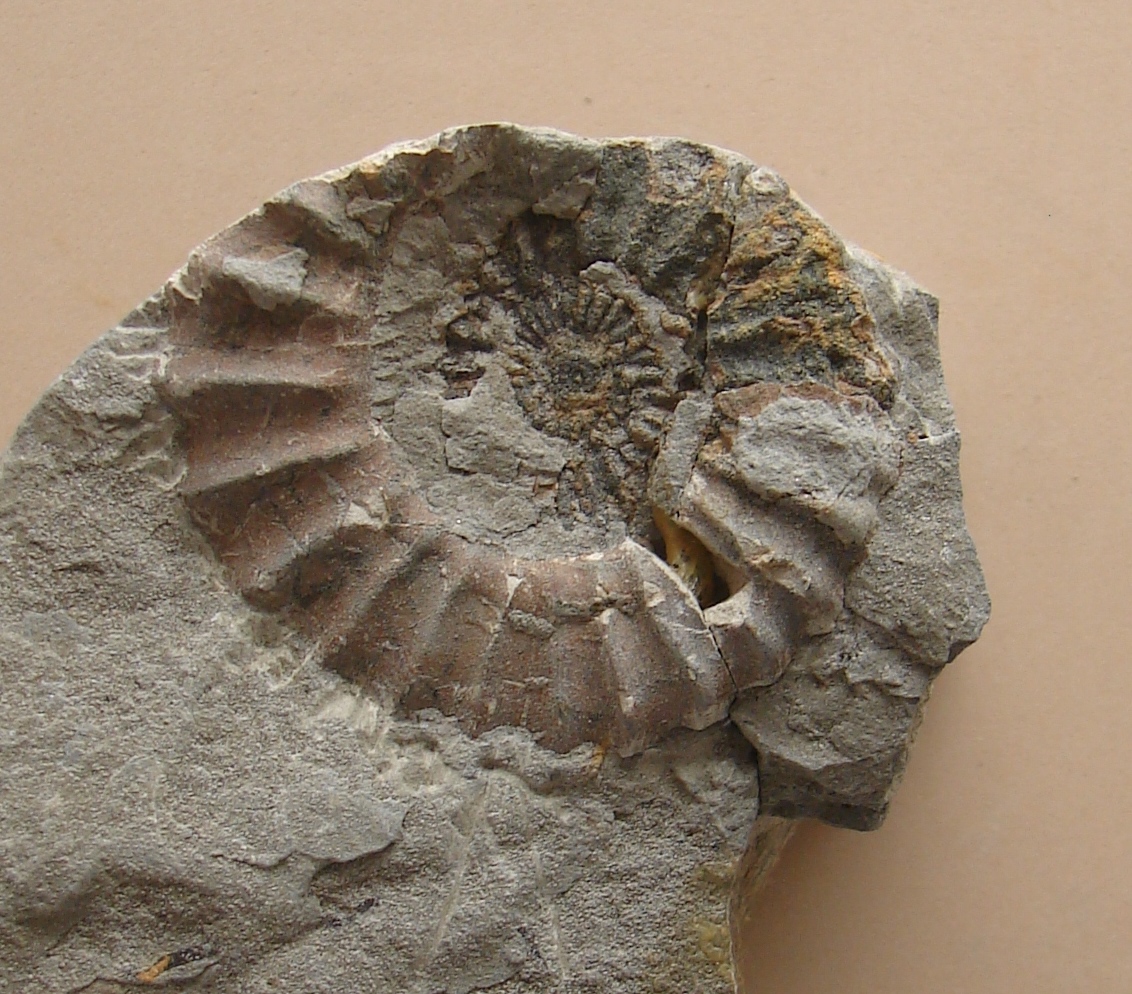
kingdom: Animalia
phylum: Mollusca
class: Cephalopoda
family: Liparoceratidae
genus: Aegoceras
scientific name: Aegoceras lataecosta
